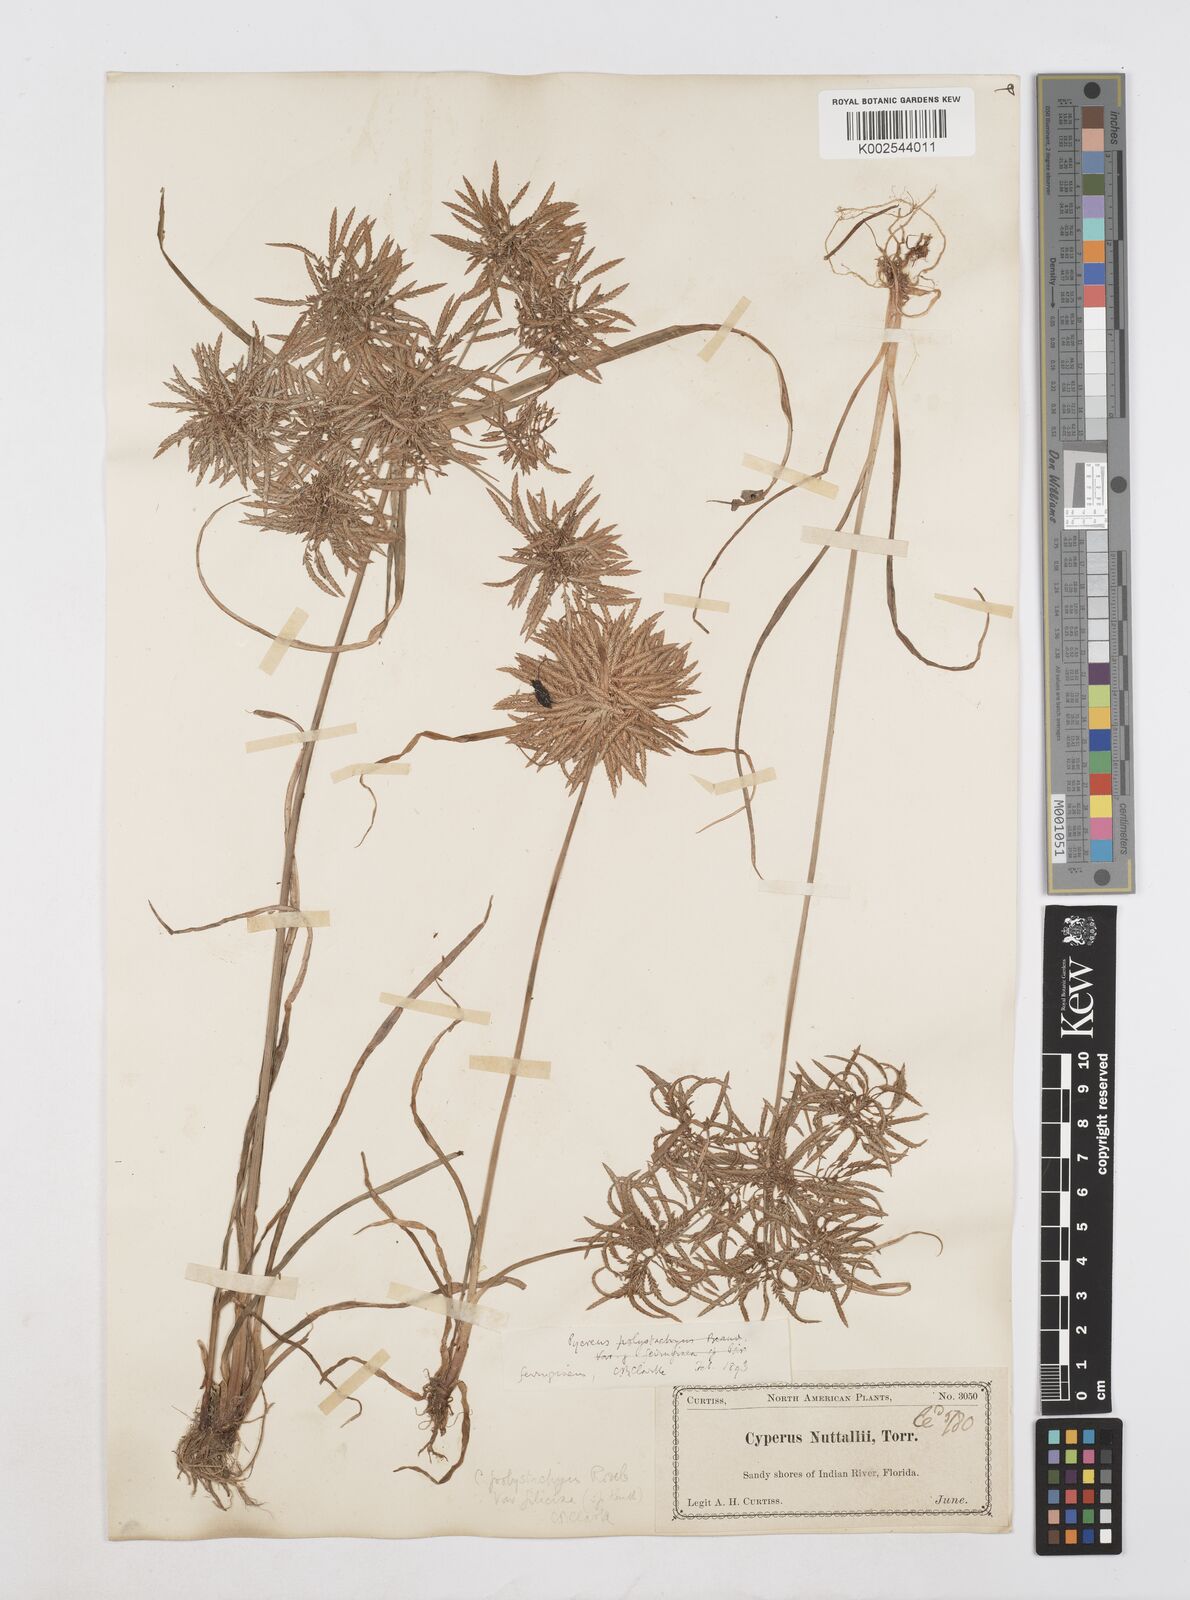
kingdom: Plantae
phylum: Tracheophyta
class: Liliopsida
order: Poales
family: Cyperaceae
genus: Cyperus
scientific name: Cyperus filicinus
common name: Fern flatsedge
